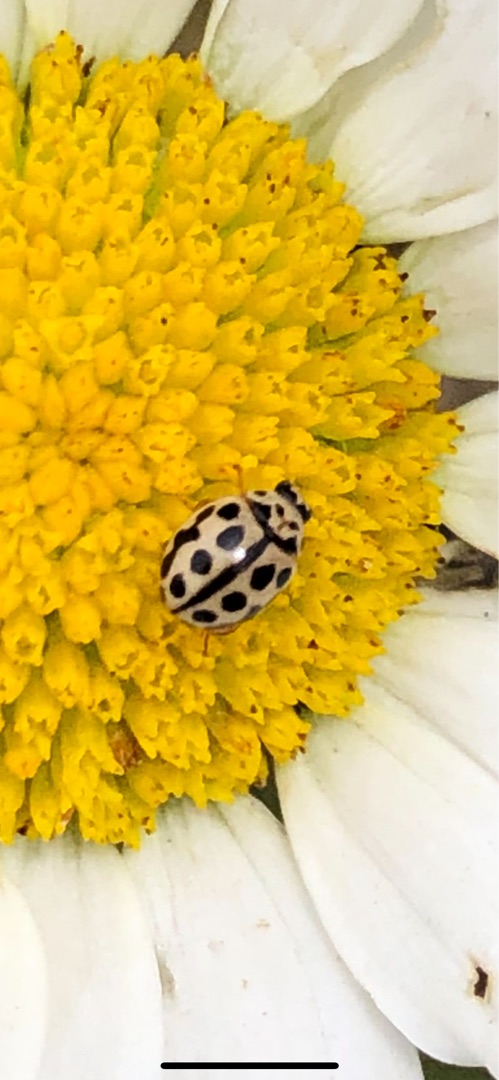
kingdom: Animalia
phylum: Arthropoda
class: Insecta
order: Coleoptera
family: Coccinellidae
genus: Tytthaspis
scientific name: Tytthaspis sedecimpunctata
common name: Sekstenprikket mariehøne
